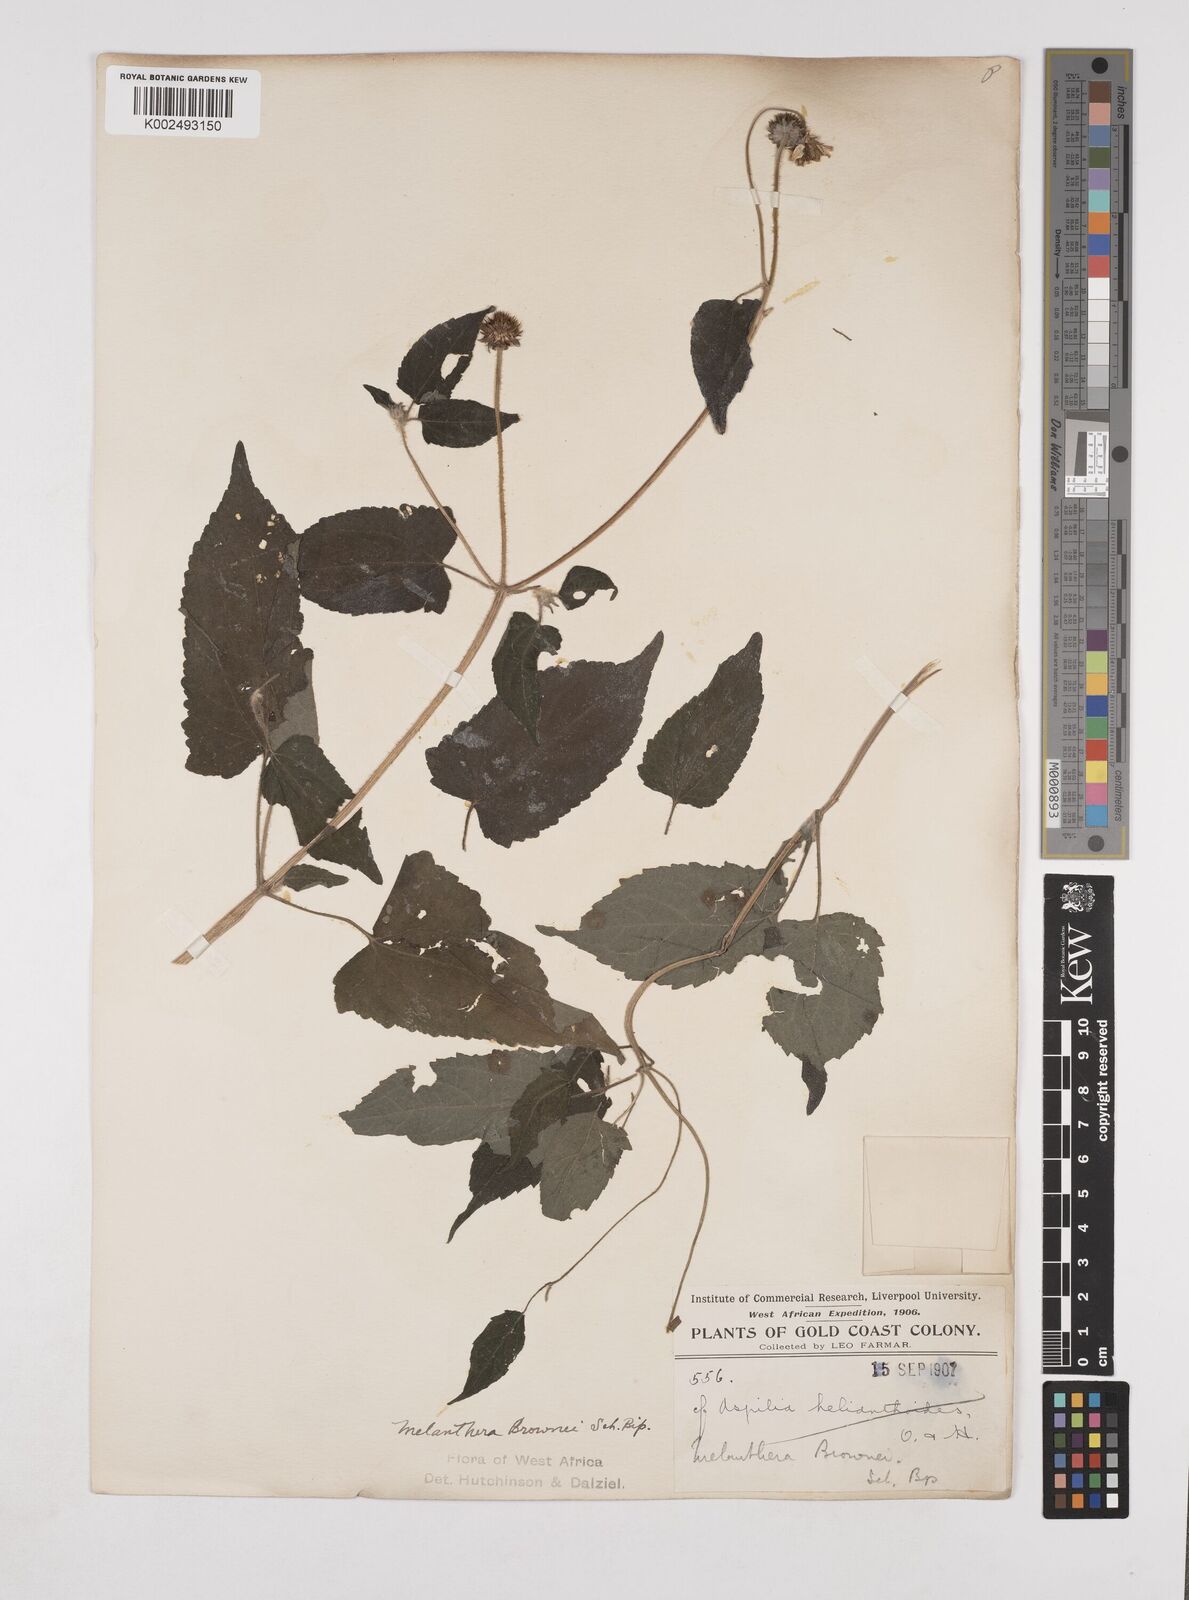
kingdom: Plantae
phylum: Tracheophyta
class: Magnoliopsida
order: Asterales
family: Asteraceae
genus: Lipotriche
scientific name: Lipotriche scandens
